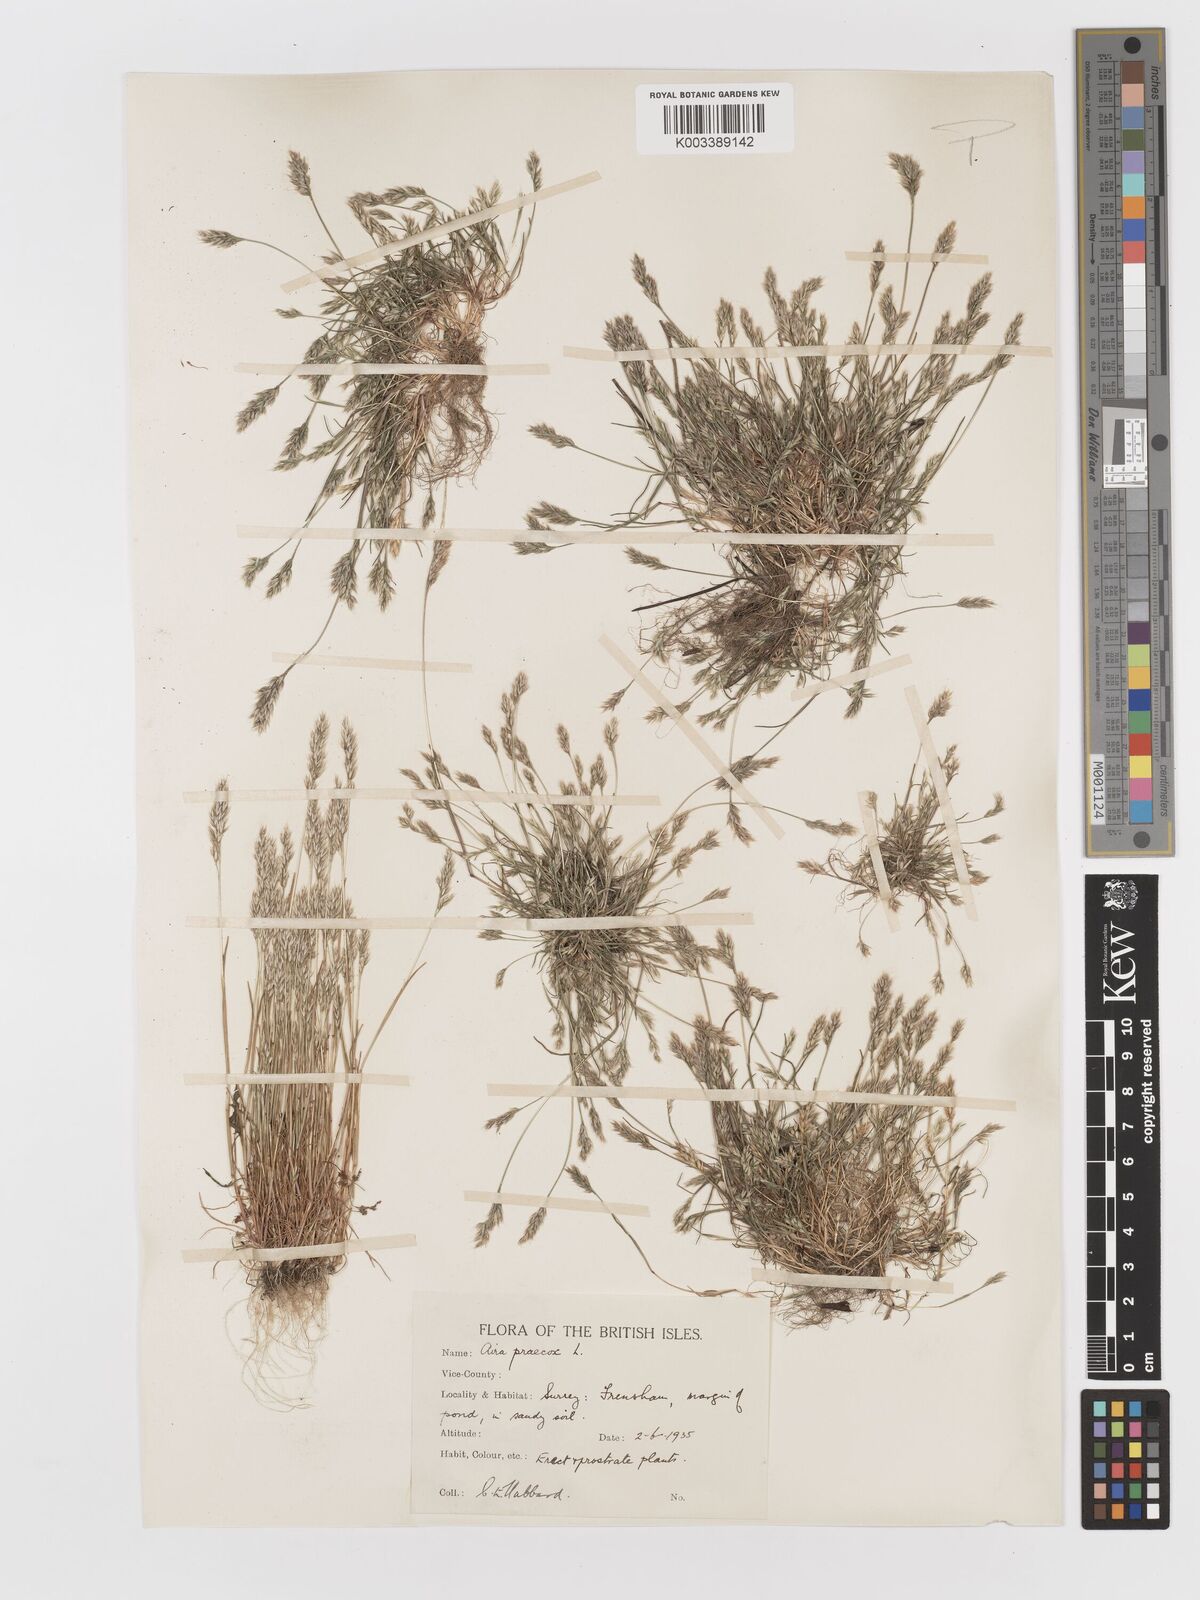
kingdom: Plantae
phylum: Tracheophyta
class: Liliopsida
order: Poales
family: Poaceae
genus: Aira
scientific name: Aira praecox
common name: Early hair-grass
